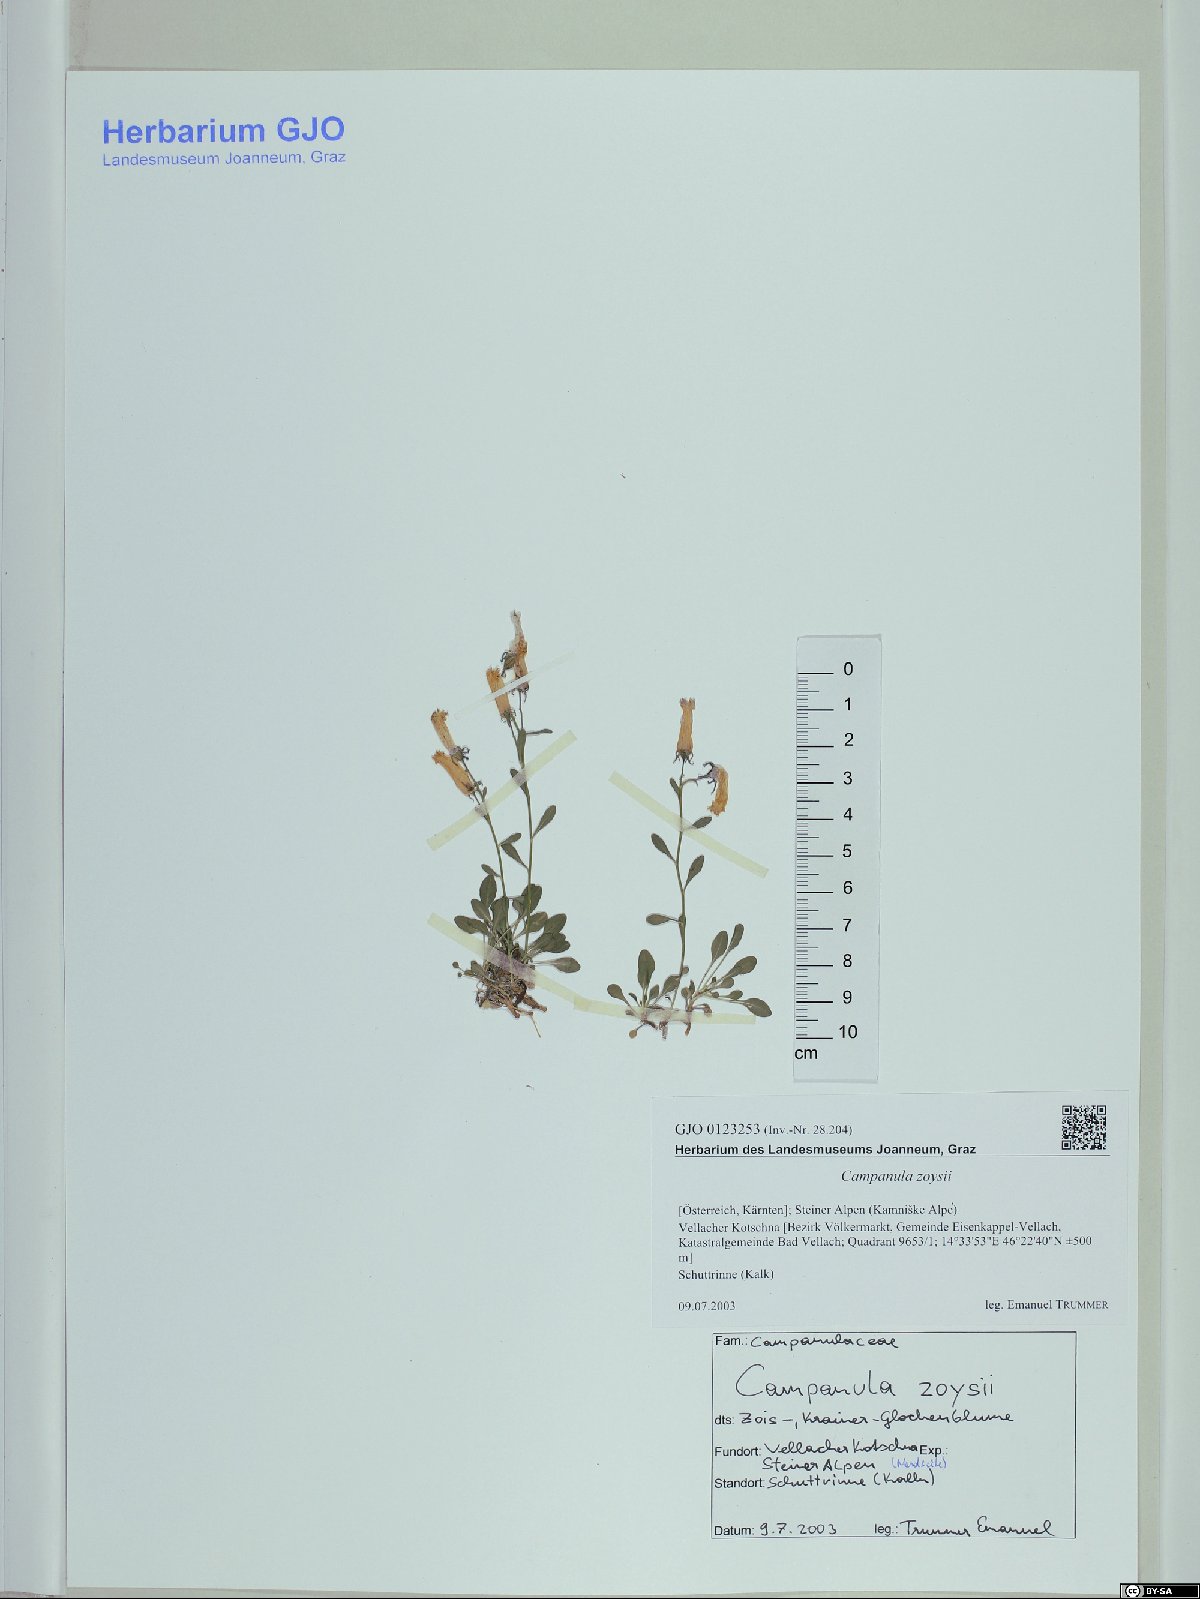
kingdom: Plantae
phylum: Tracheophyta
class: Magnoliopsida
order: Asterales
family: Campanulaceae
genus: Favratia
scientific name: Favratia zoysii
